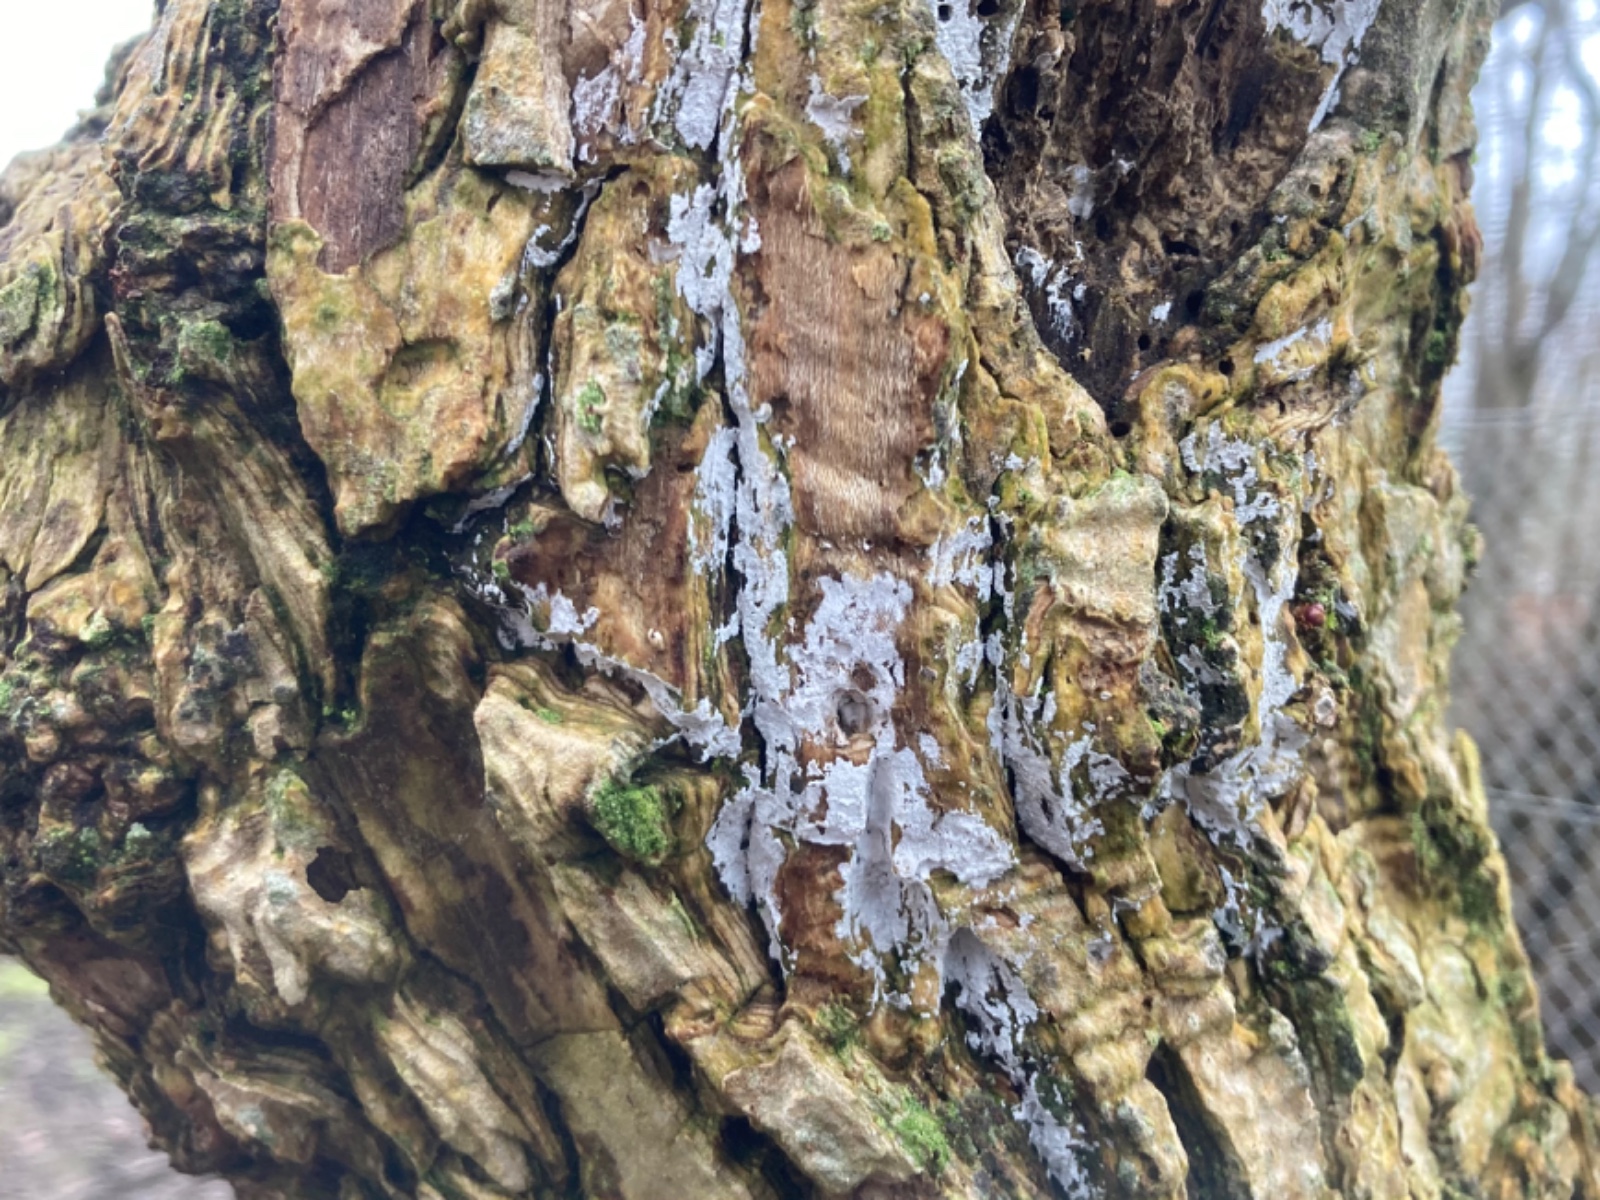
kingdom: Fungi
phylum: Basidiomycota
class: Agaricomycetes
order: Corticiales
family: Corticiaceae
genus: Lyomyces
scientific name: Lyomyces sambuci
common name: almindelig hyldehinde
